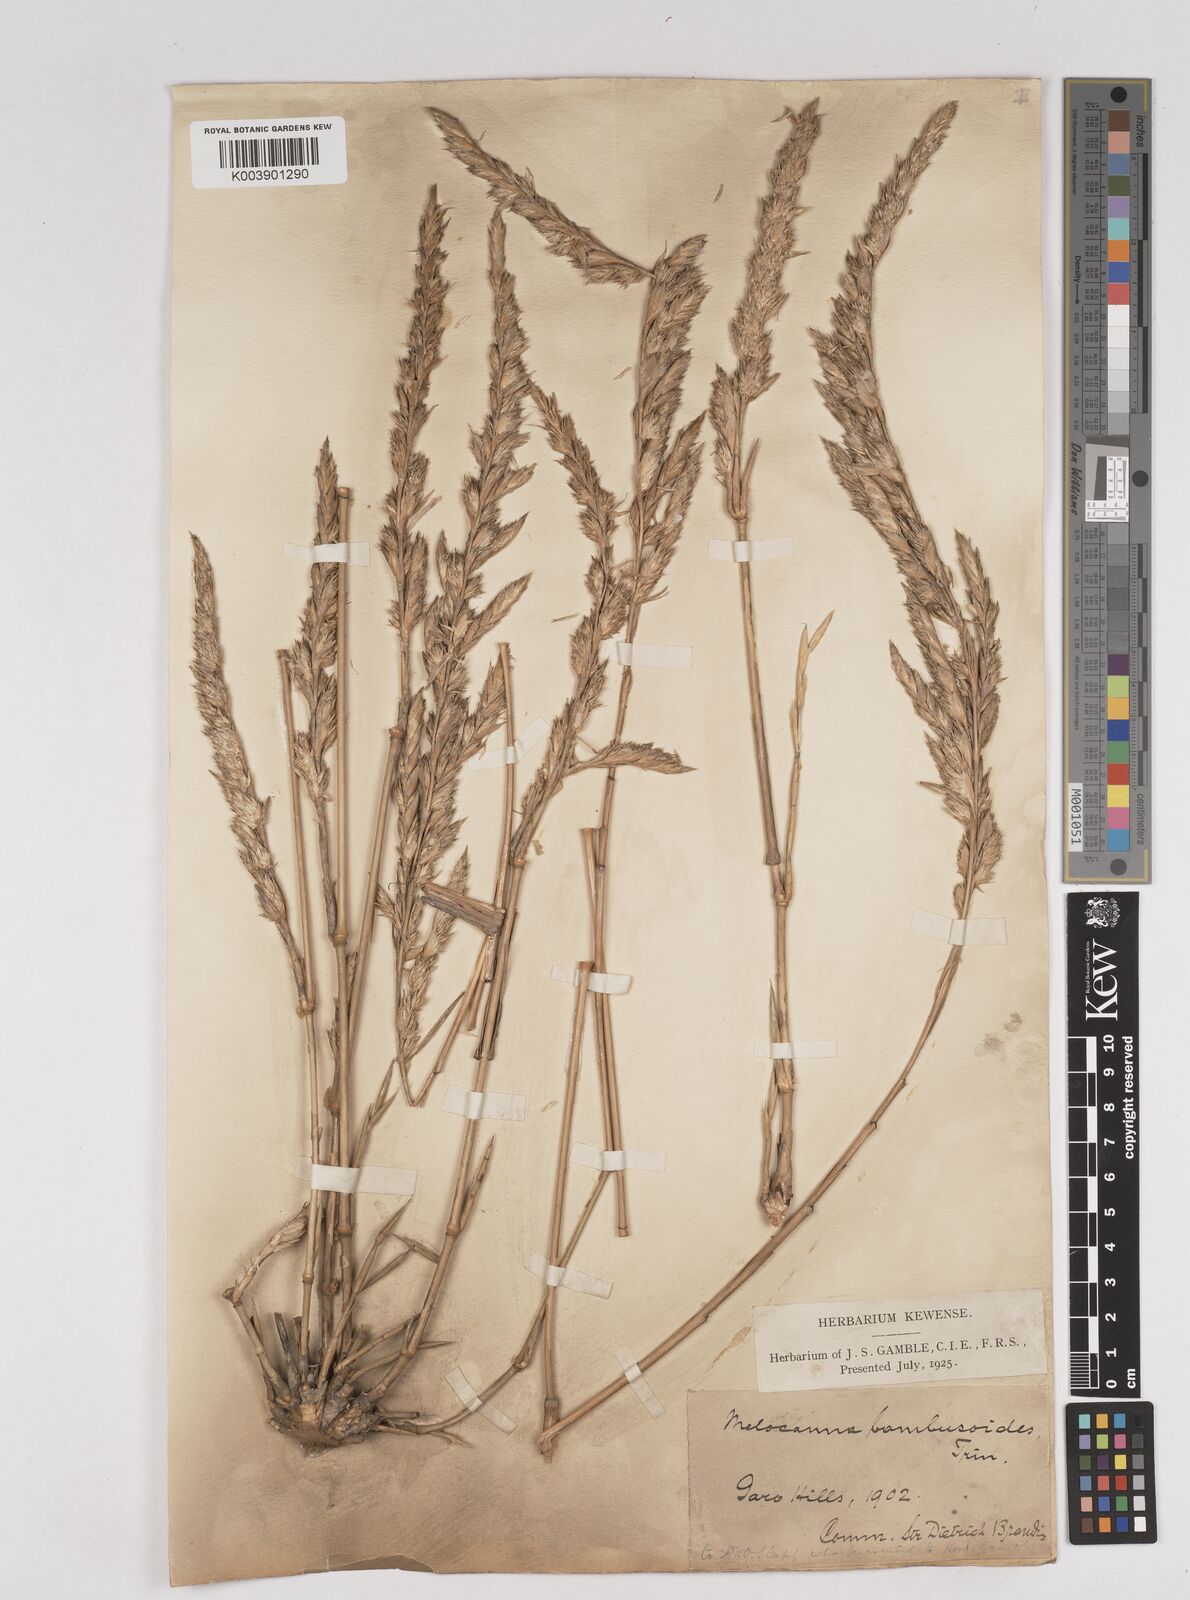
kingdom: Plantae
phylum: Tracheophyta
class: Liliopsida
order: Poales
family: Poaceae
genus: Melocanna
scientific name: Melocanna baccifera
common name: Berry bamboo
